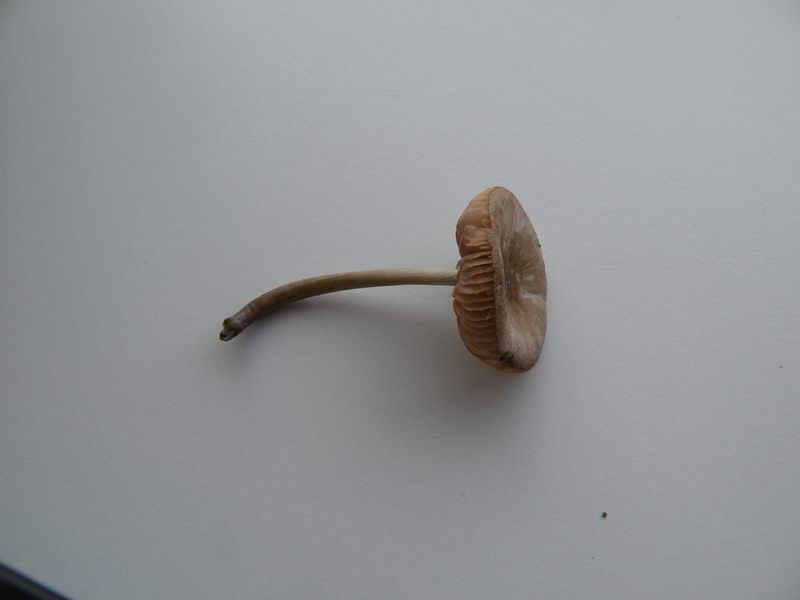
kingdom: Fungi
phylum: Basidiomycota
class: Agaricomycetes
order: Agaricales
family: Pluteaceae
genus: Pluteus
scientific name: Pluteus semibulbosus
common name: knoldet skærmhat
